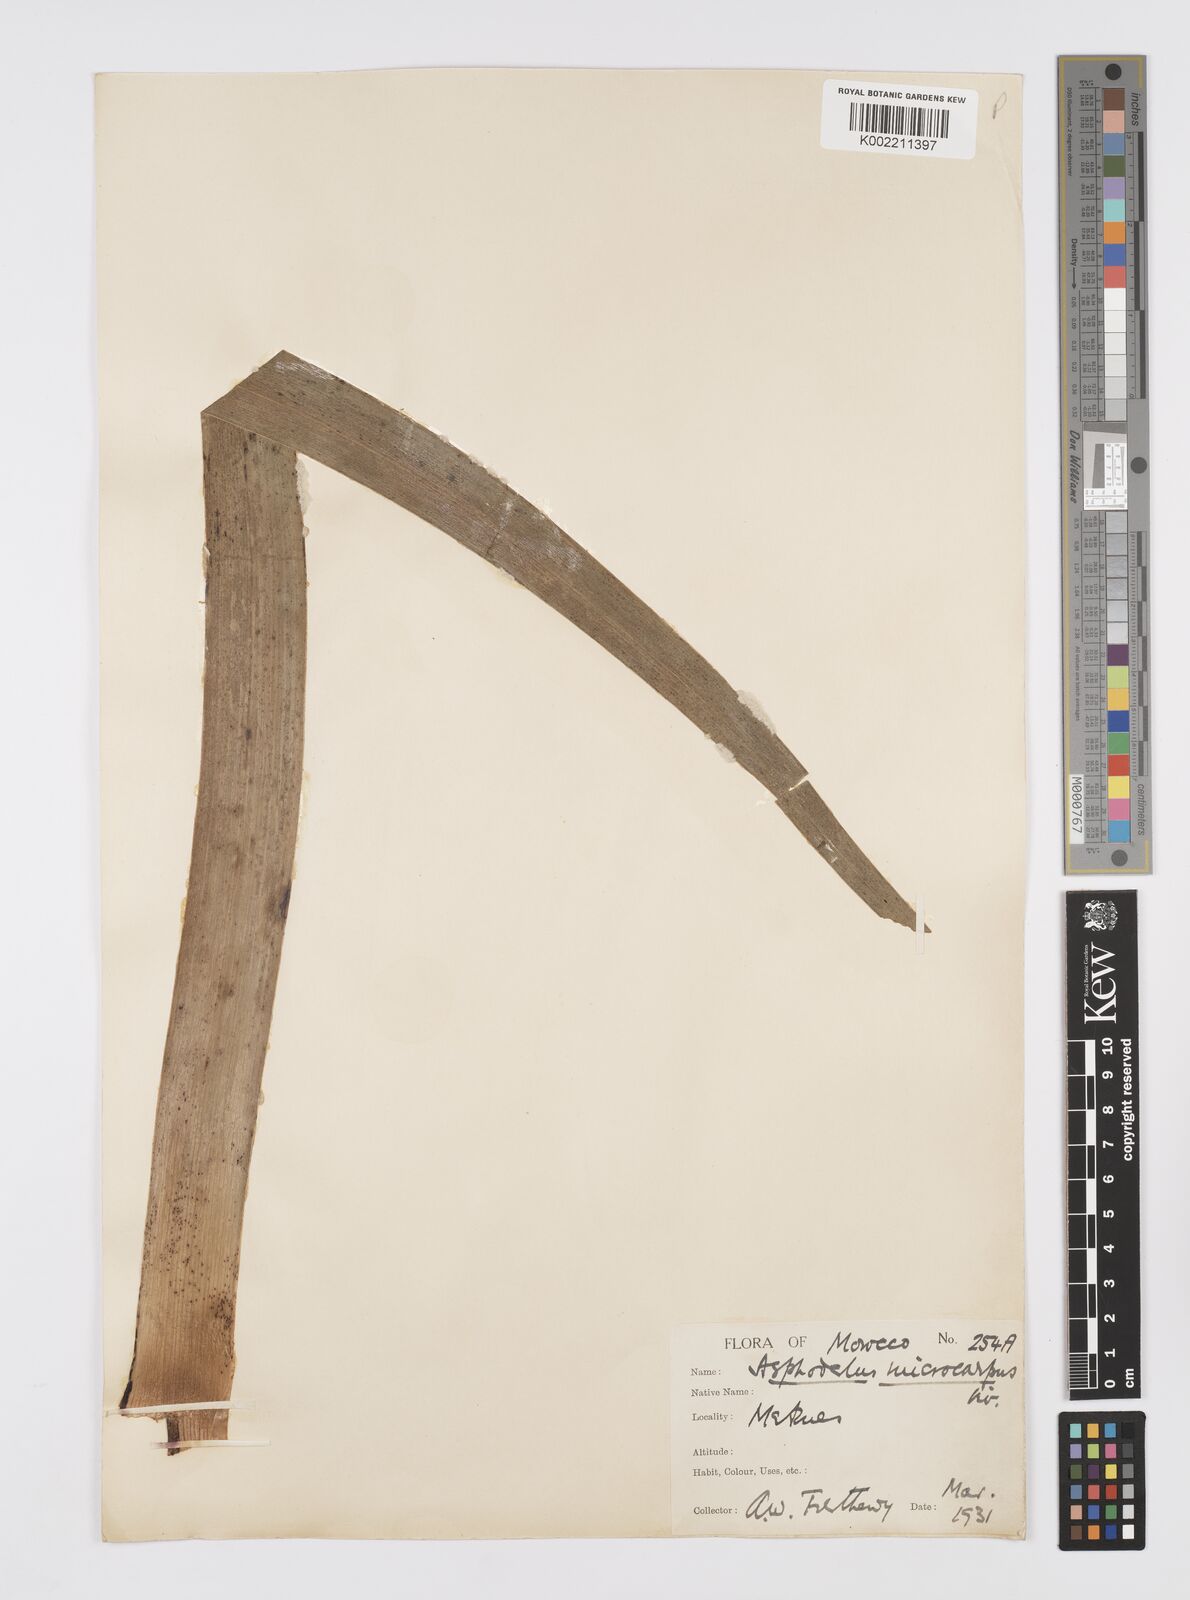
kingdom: Plantae
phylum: Tracheophyta
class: Liliopsida
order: Asparagales
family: Asphodelaceae
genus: Asphodelus
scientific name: Asphodelus ramosus
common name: Silverrod
